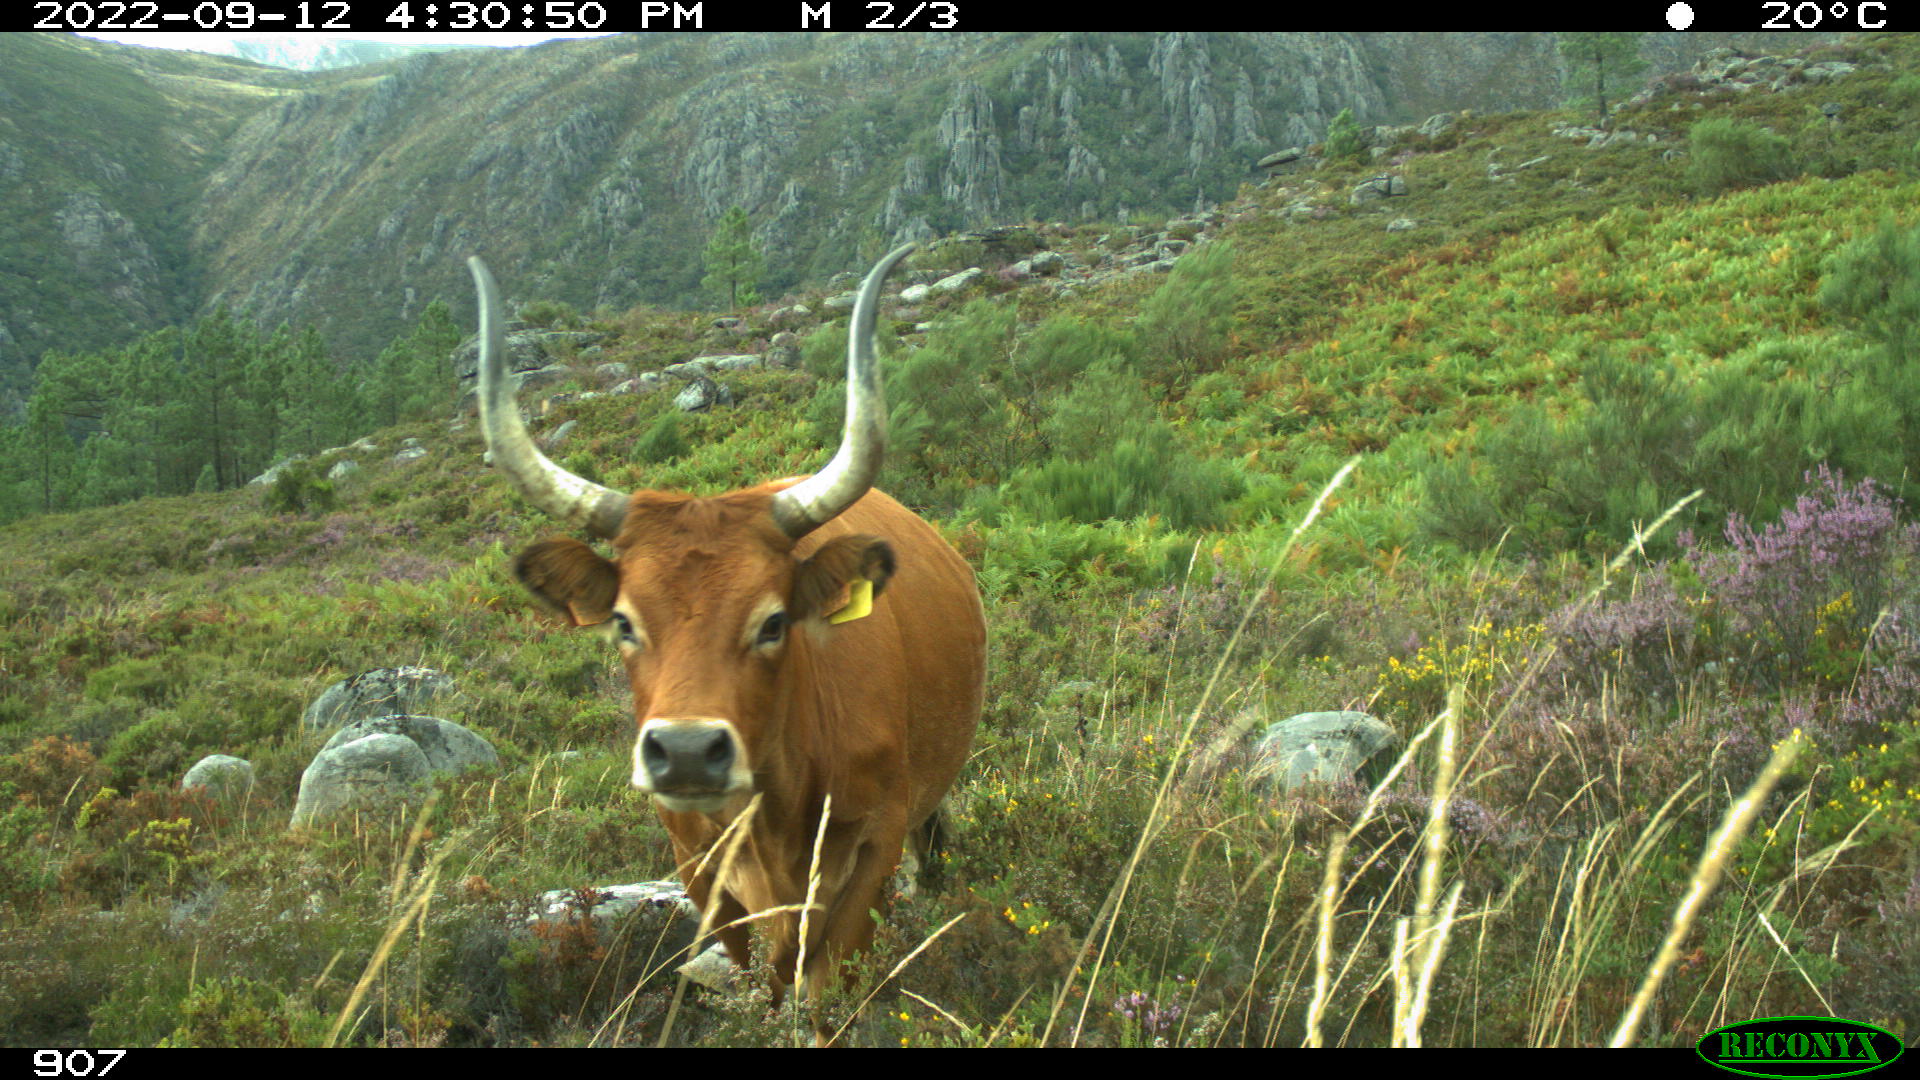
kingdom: Animalia
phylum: Chordata
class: Mammalia
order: Artiodactyla
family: Bovidae
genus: Bos
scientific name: Bos taurus
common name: Domesticated cattle
